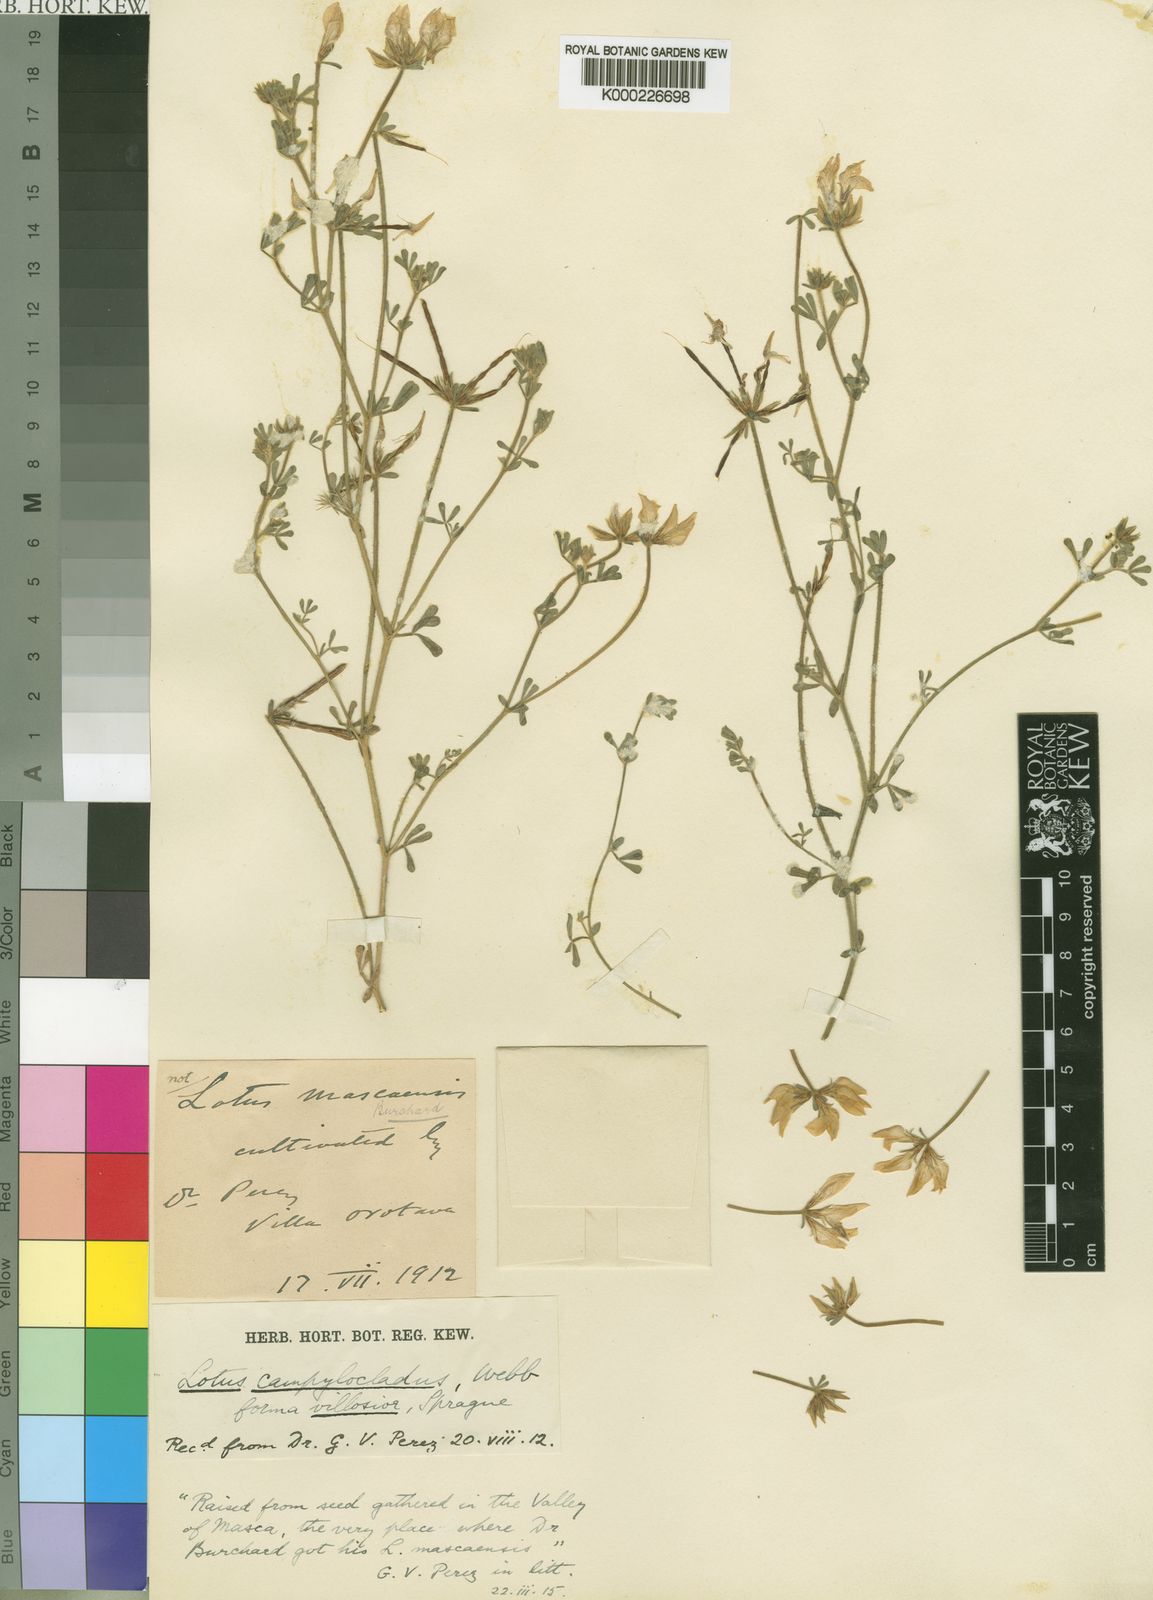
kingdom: Plantae
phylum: Tracheophyta
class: Magnoliopsida
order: Fabales
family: Fabaceae
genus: Lotus
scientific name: Lotus campylocladus
